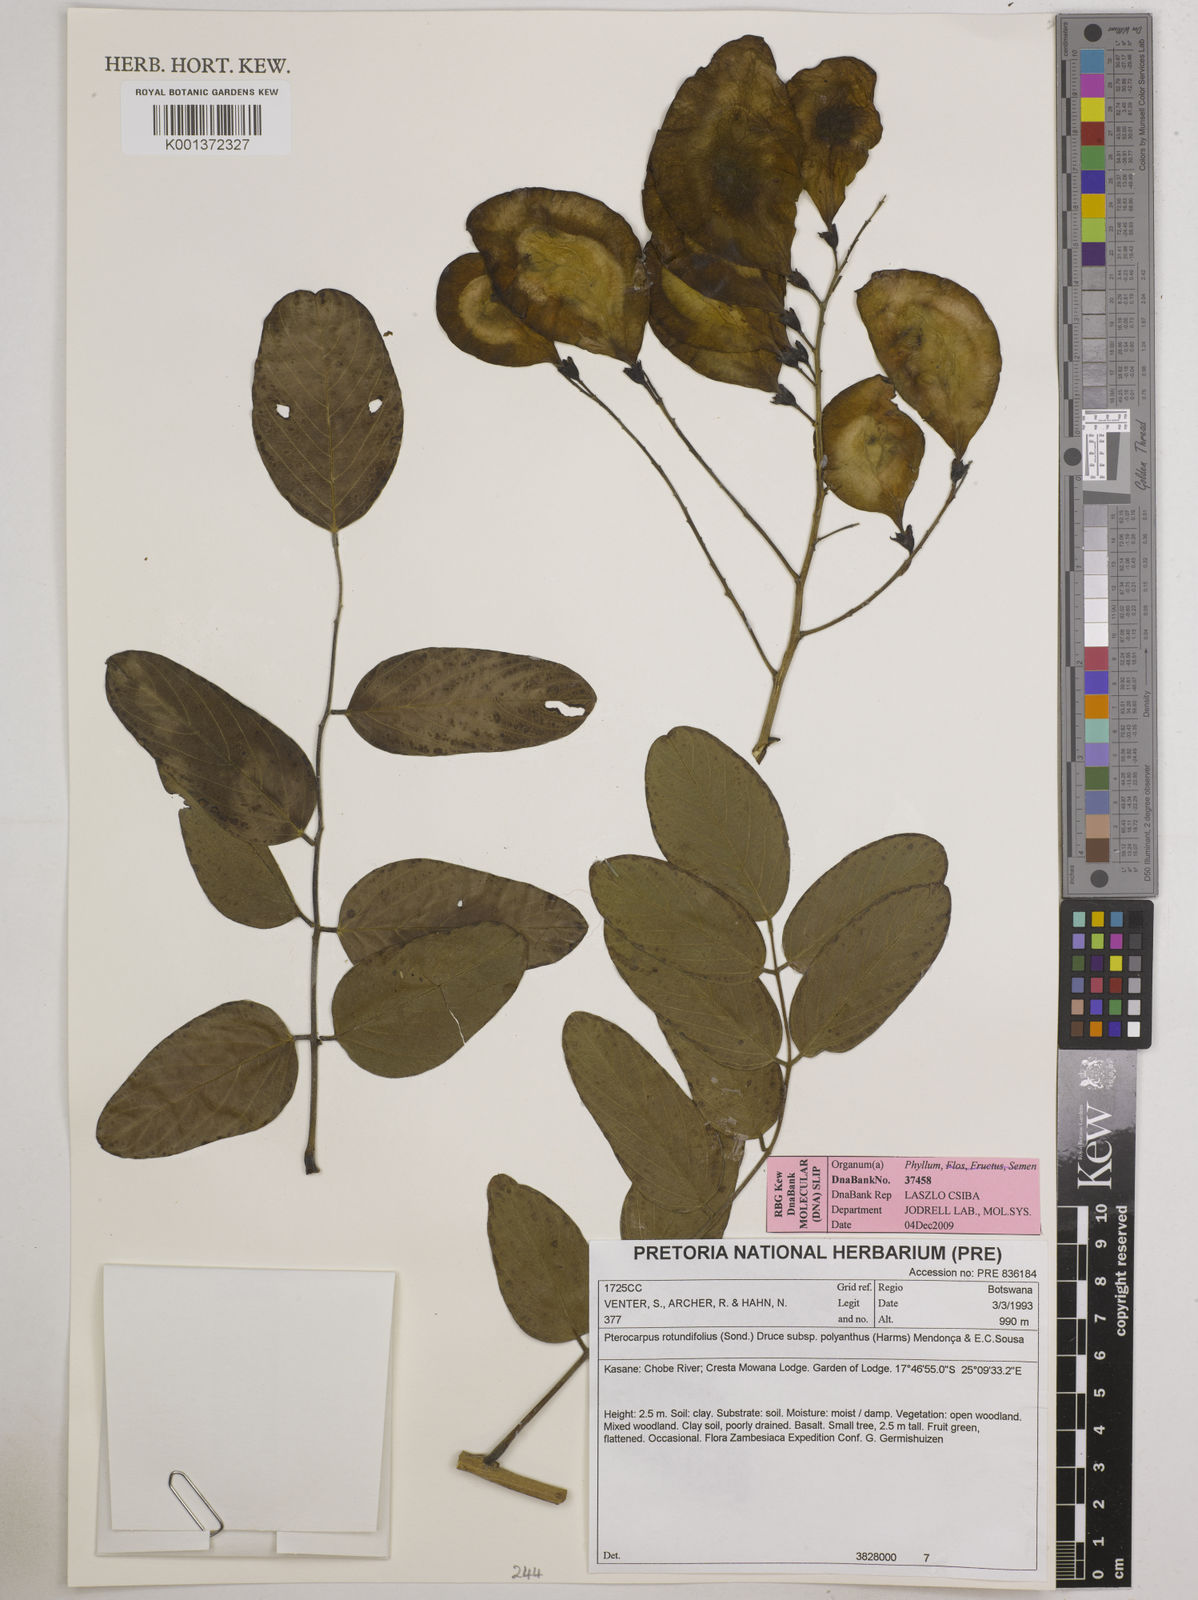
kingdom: Plantae
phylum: Tracheophyta
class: Magnoliopsida
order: Fabales
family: Fabaceae
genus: Pterocarpus
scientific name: Pterocarpus rotundifolius
